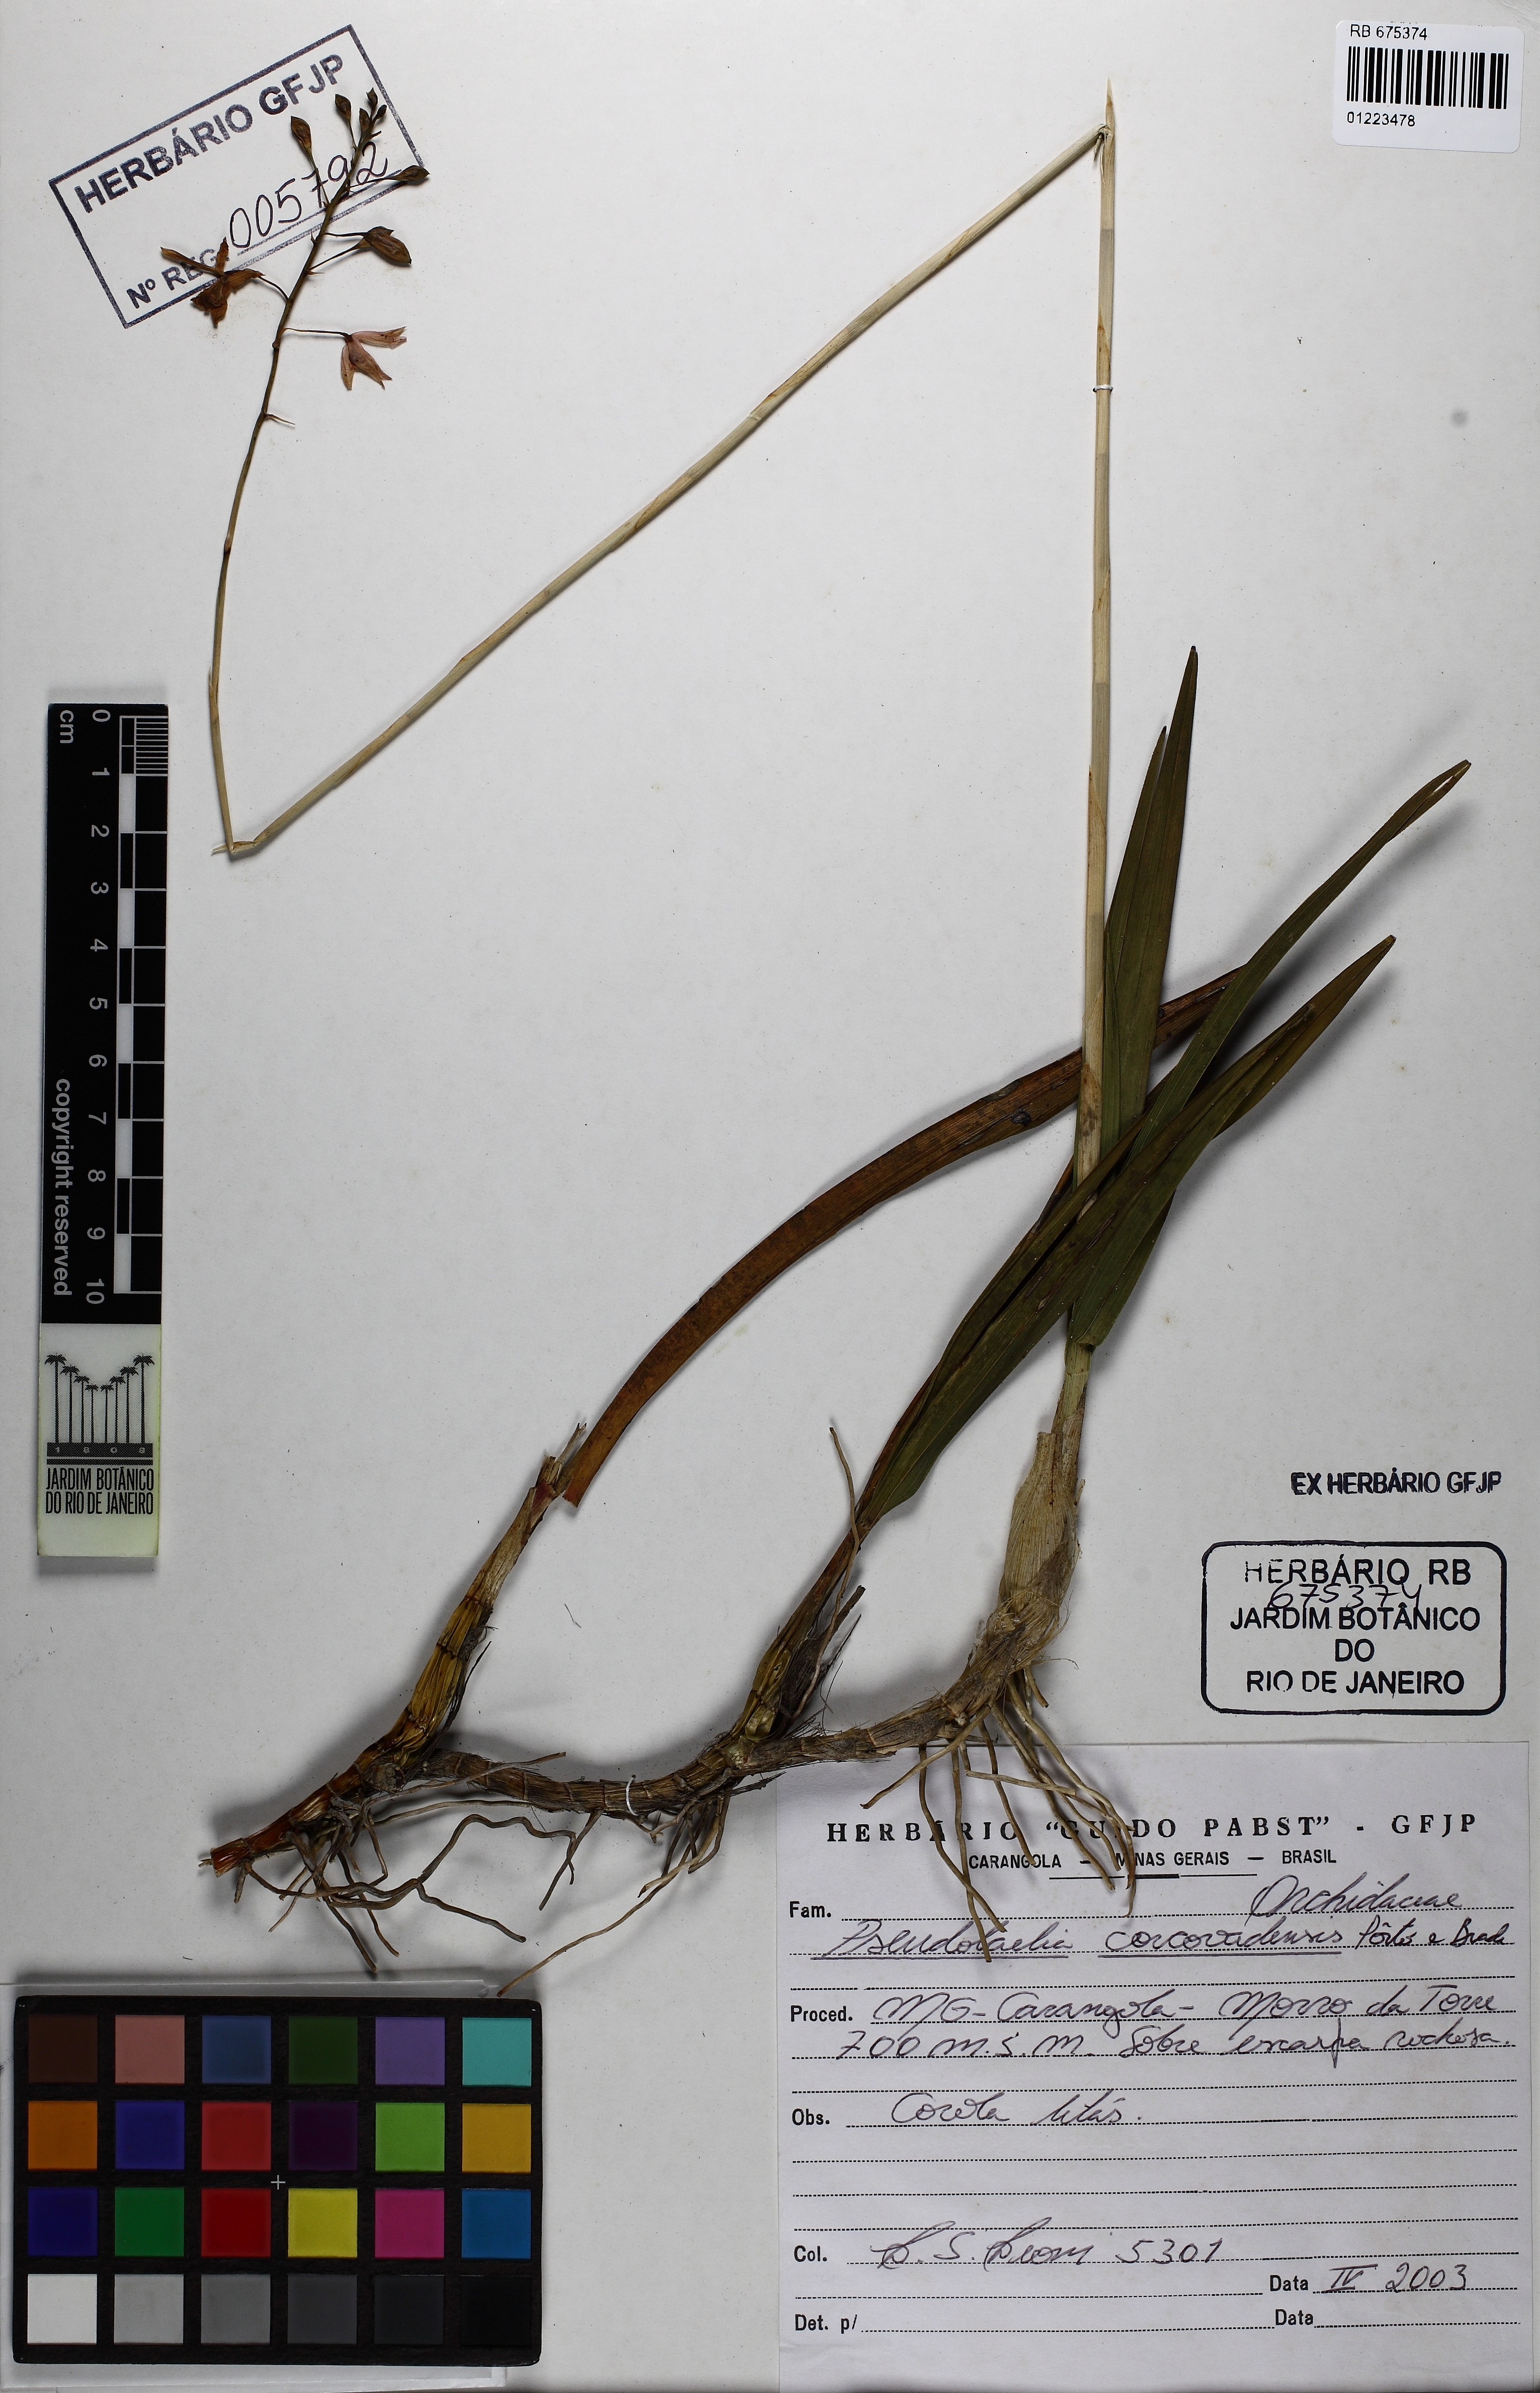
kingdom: Plantae
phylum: Tracheophyta
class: Liliopsida
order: Asparagales
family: Orchidaceae
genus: Pseudolaelia
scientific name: Pseudolaelia irwiniana
